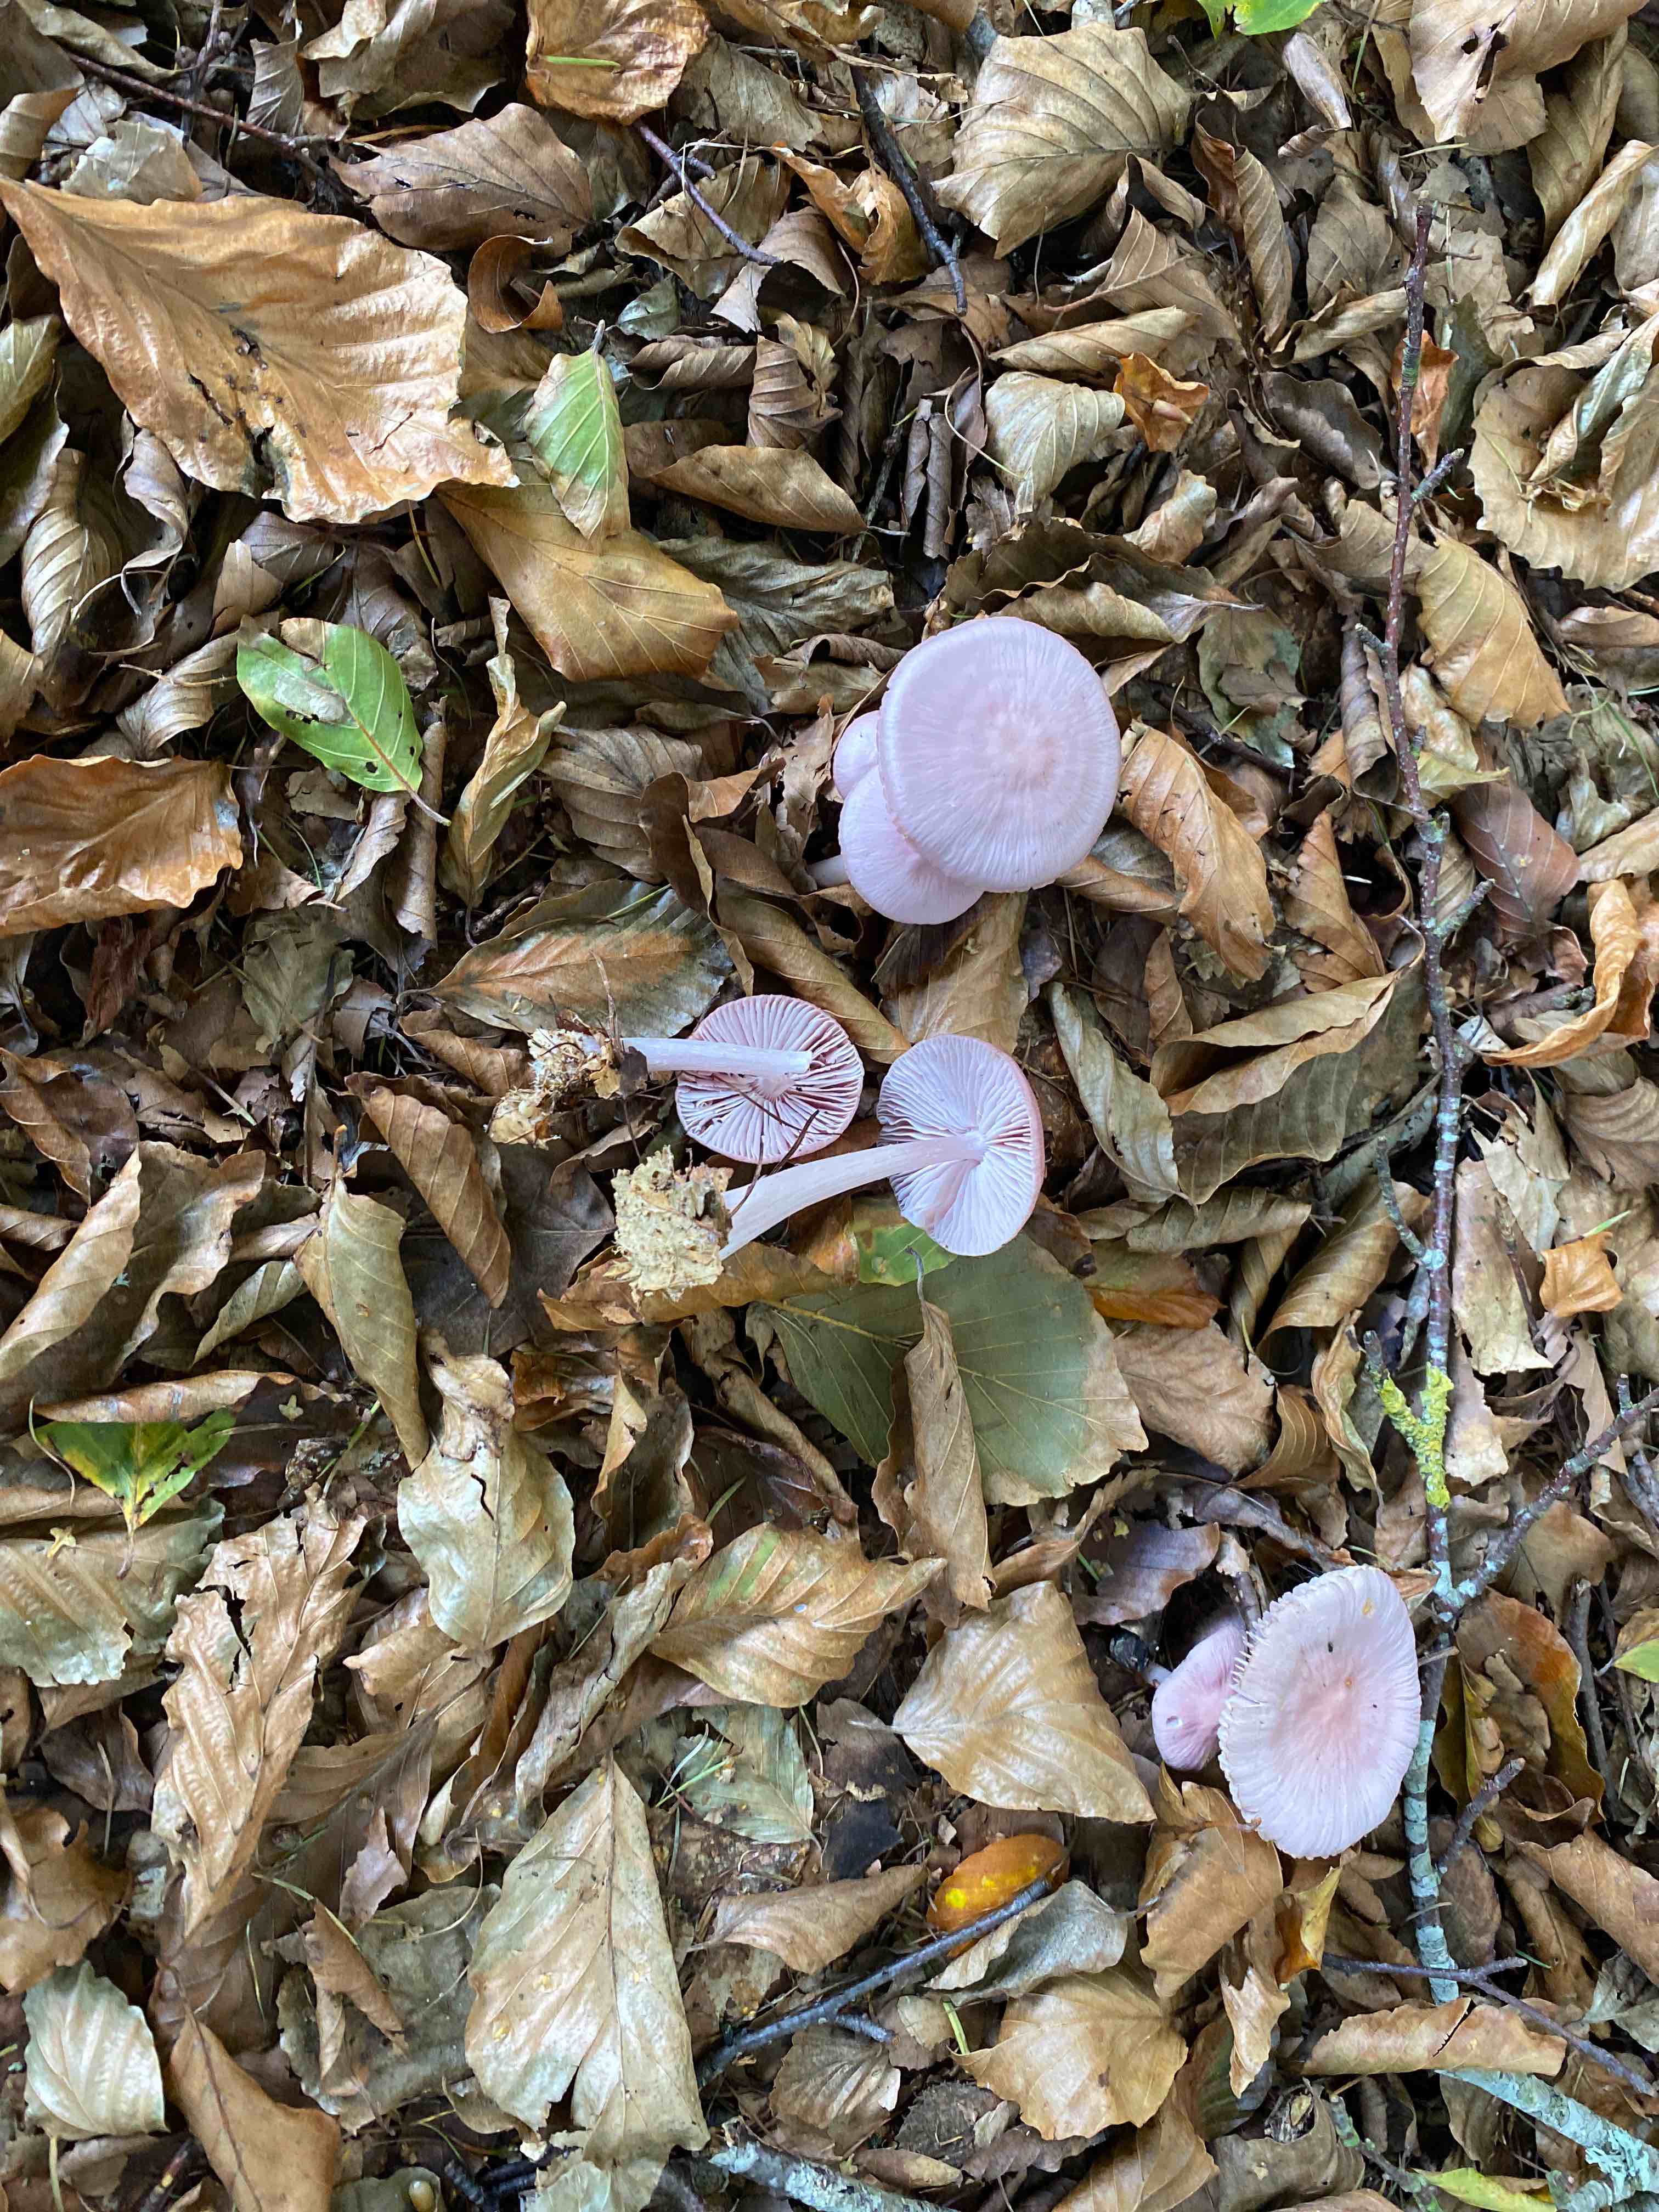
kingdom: Fungi
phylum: Basidiomycota
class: Agaricomycetes
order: Agaricales
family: Mycenaceae
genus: Mycena
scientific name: Mycena rosea
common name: rosa huesvamp
